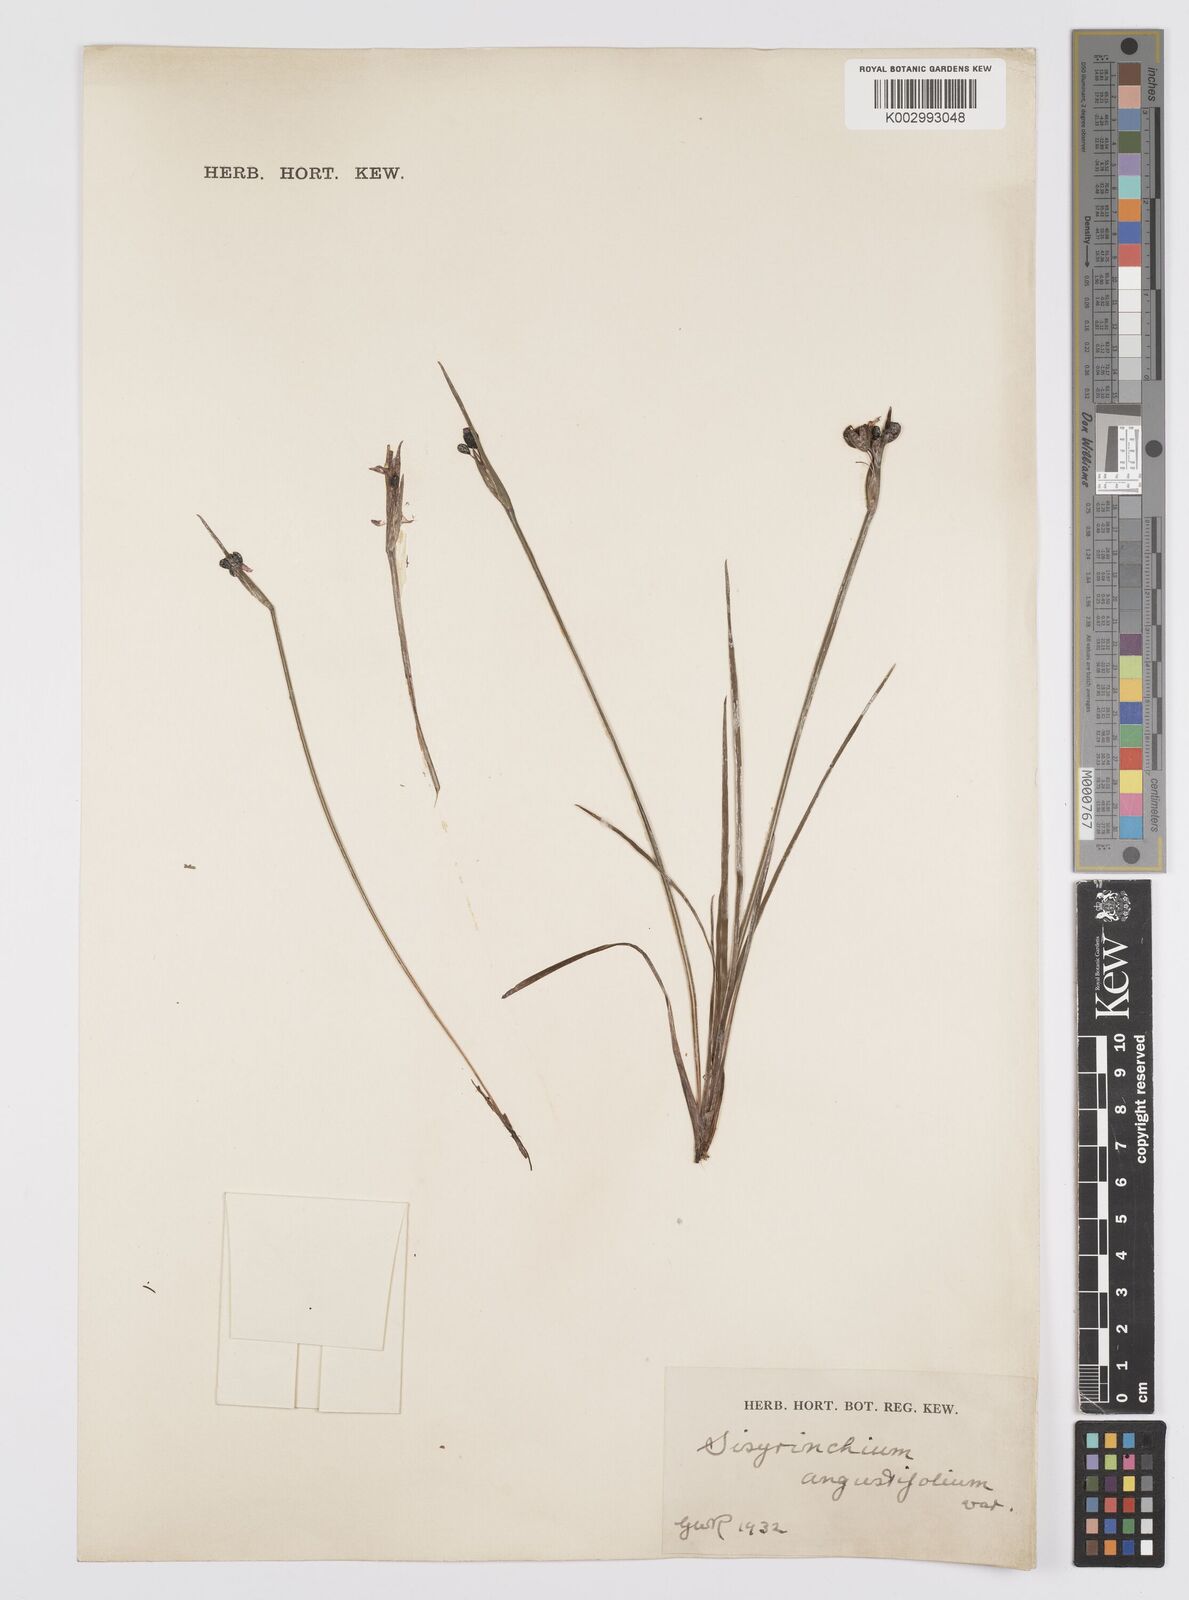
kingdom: Plantae
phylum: Tracheophyta
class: Liliopsida
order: Asparagales
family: Iridaceae
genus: Sisyrinchium
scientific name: Sisyrinchium angustifolium
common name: Narrow-leaf blue-eyed-grass
